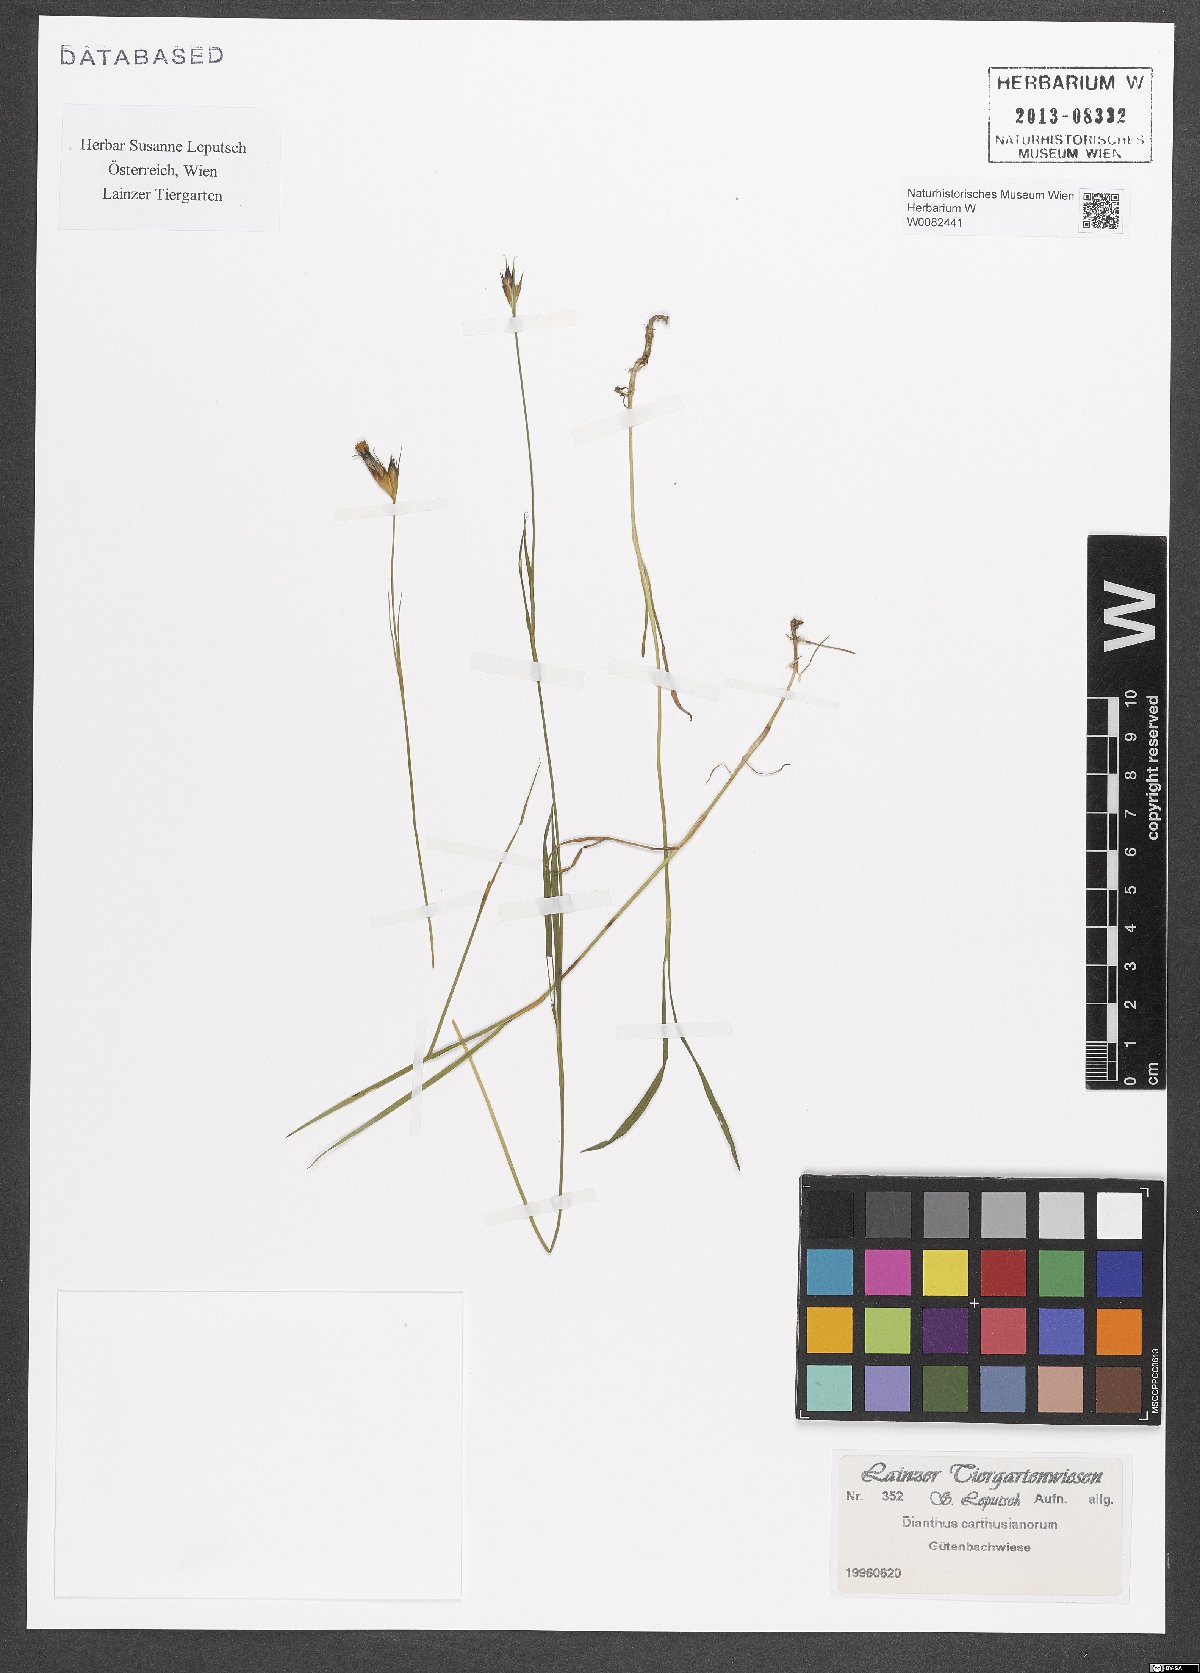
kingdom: Plantae
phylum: Tracheophyta
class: Magnoliopsida
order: Caryophyllales
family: Caryophyllaceae
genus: Dianthus
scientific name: Dianthus carthusianorum
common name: Carthusian pink
